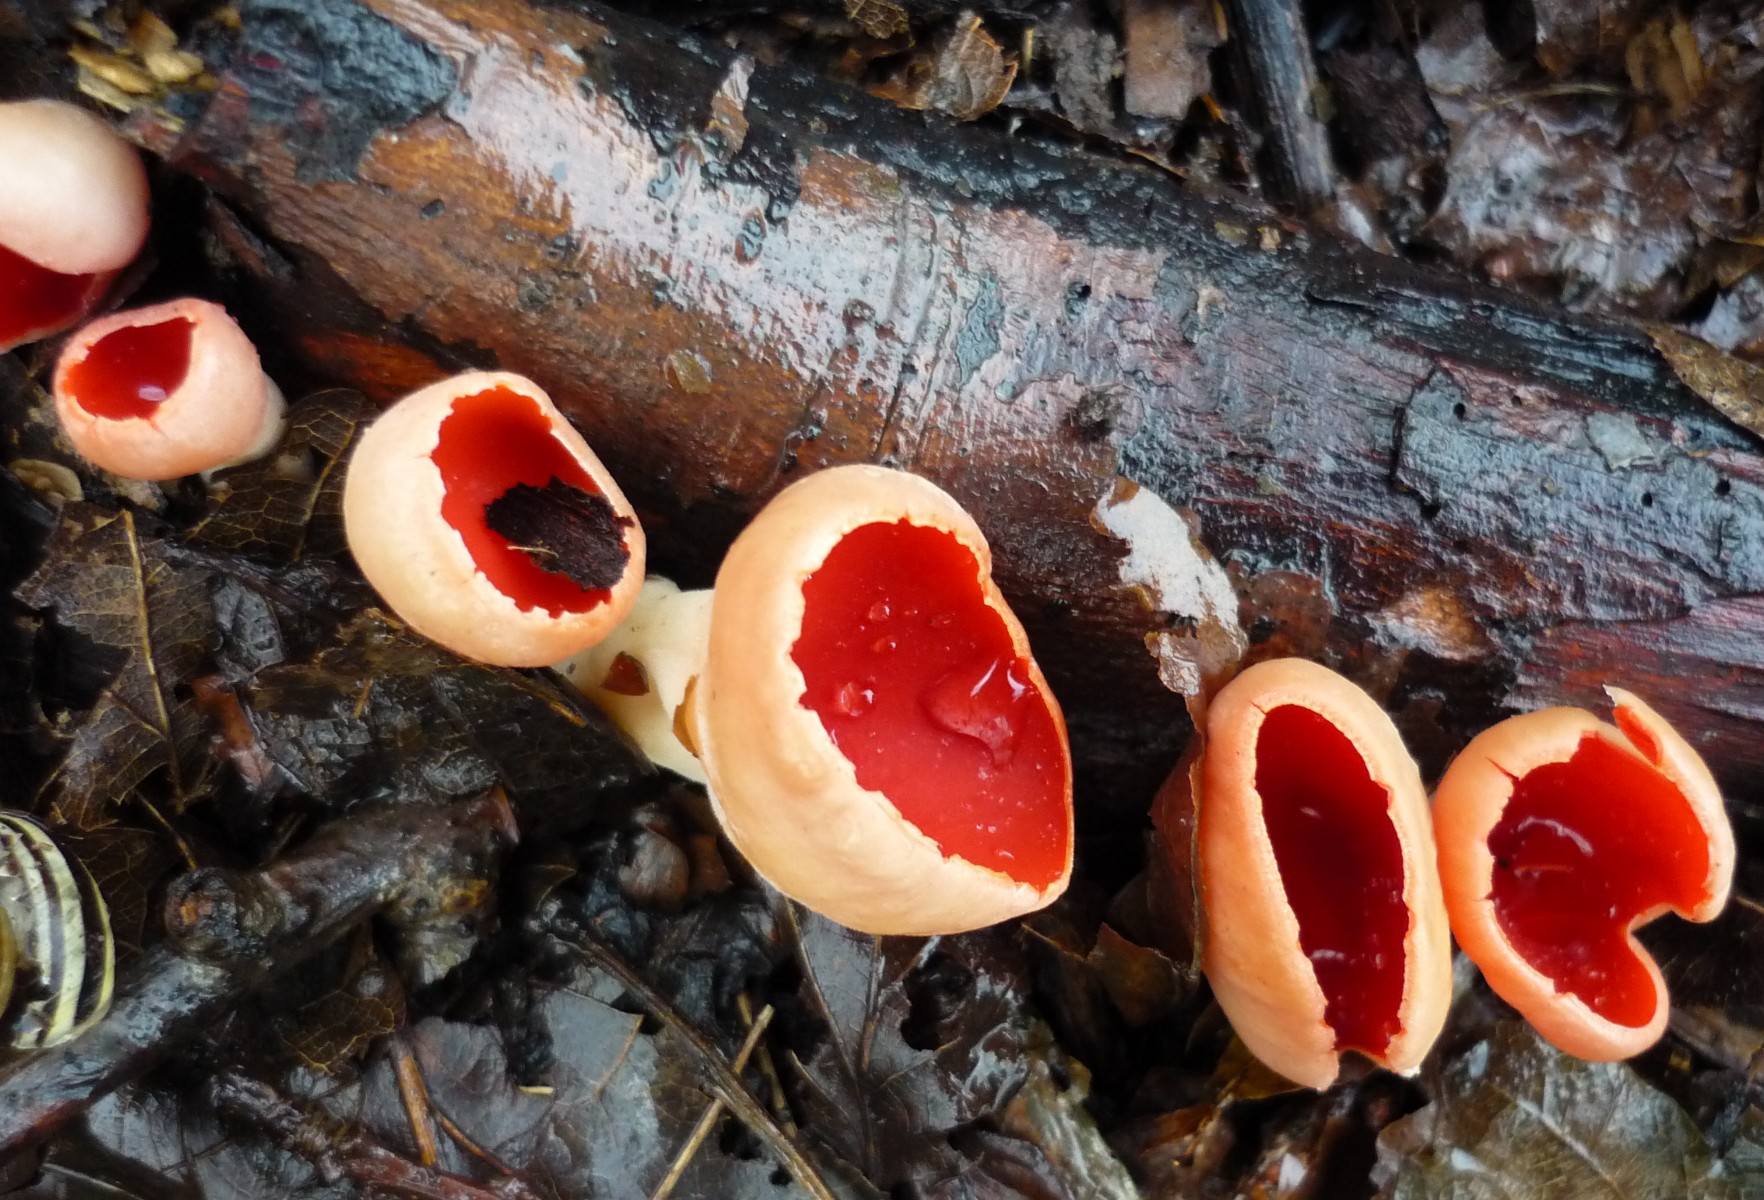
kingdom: Fungi
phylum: Ascomycota
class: Pezizomycetes
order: Pezizales
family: Sarcoscyphaceae
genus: Sarcoscypha
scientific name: Sarcoscypha austriaca
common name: krølhåret pragtbæger
